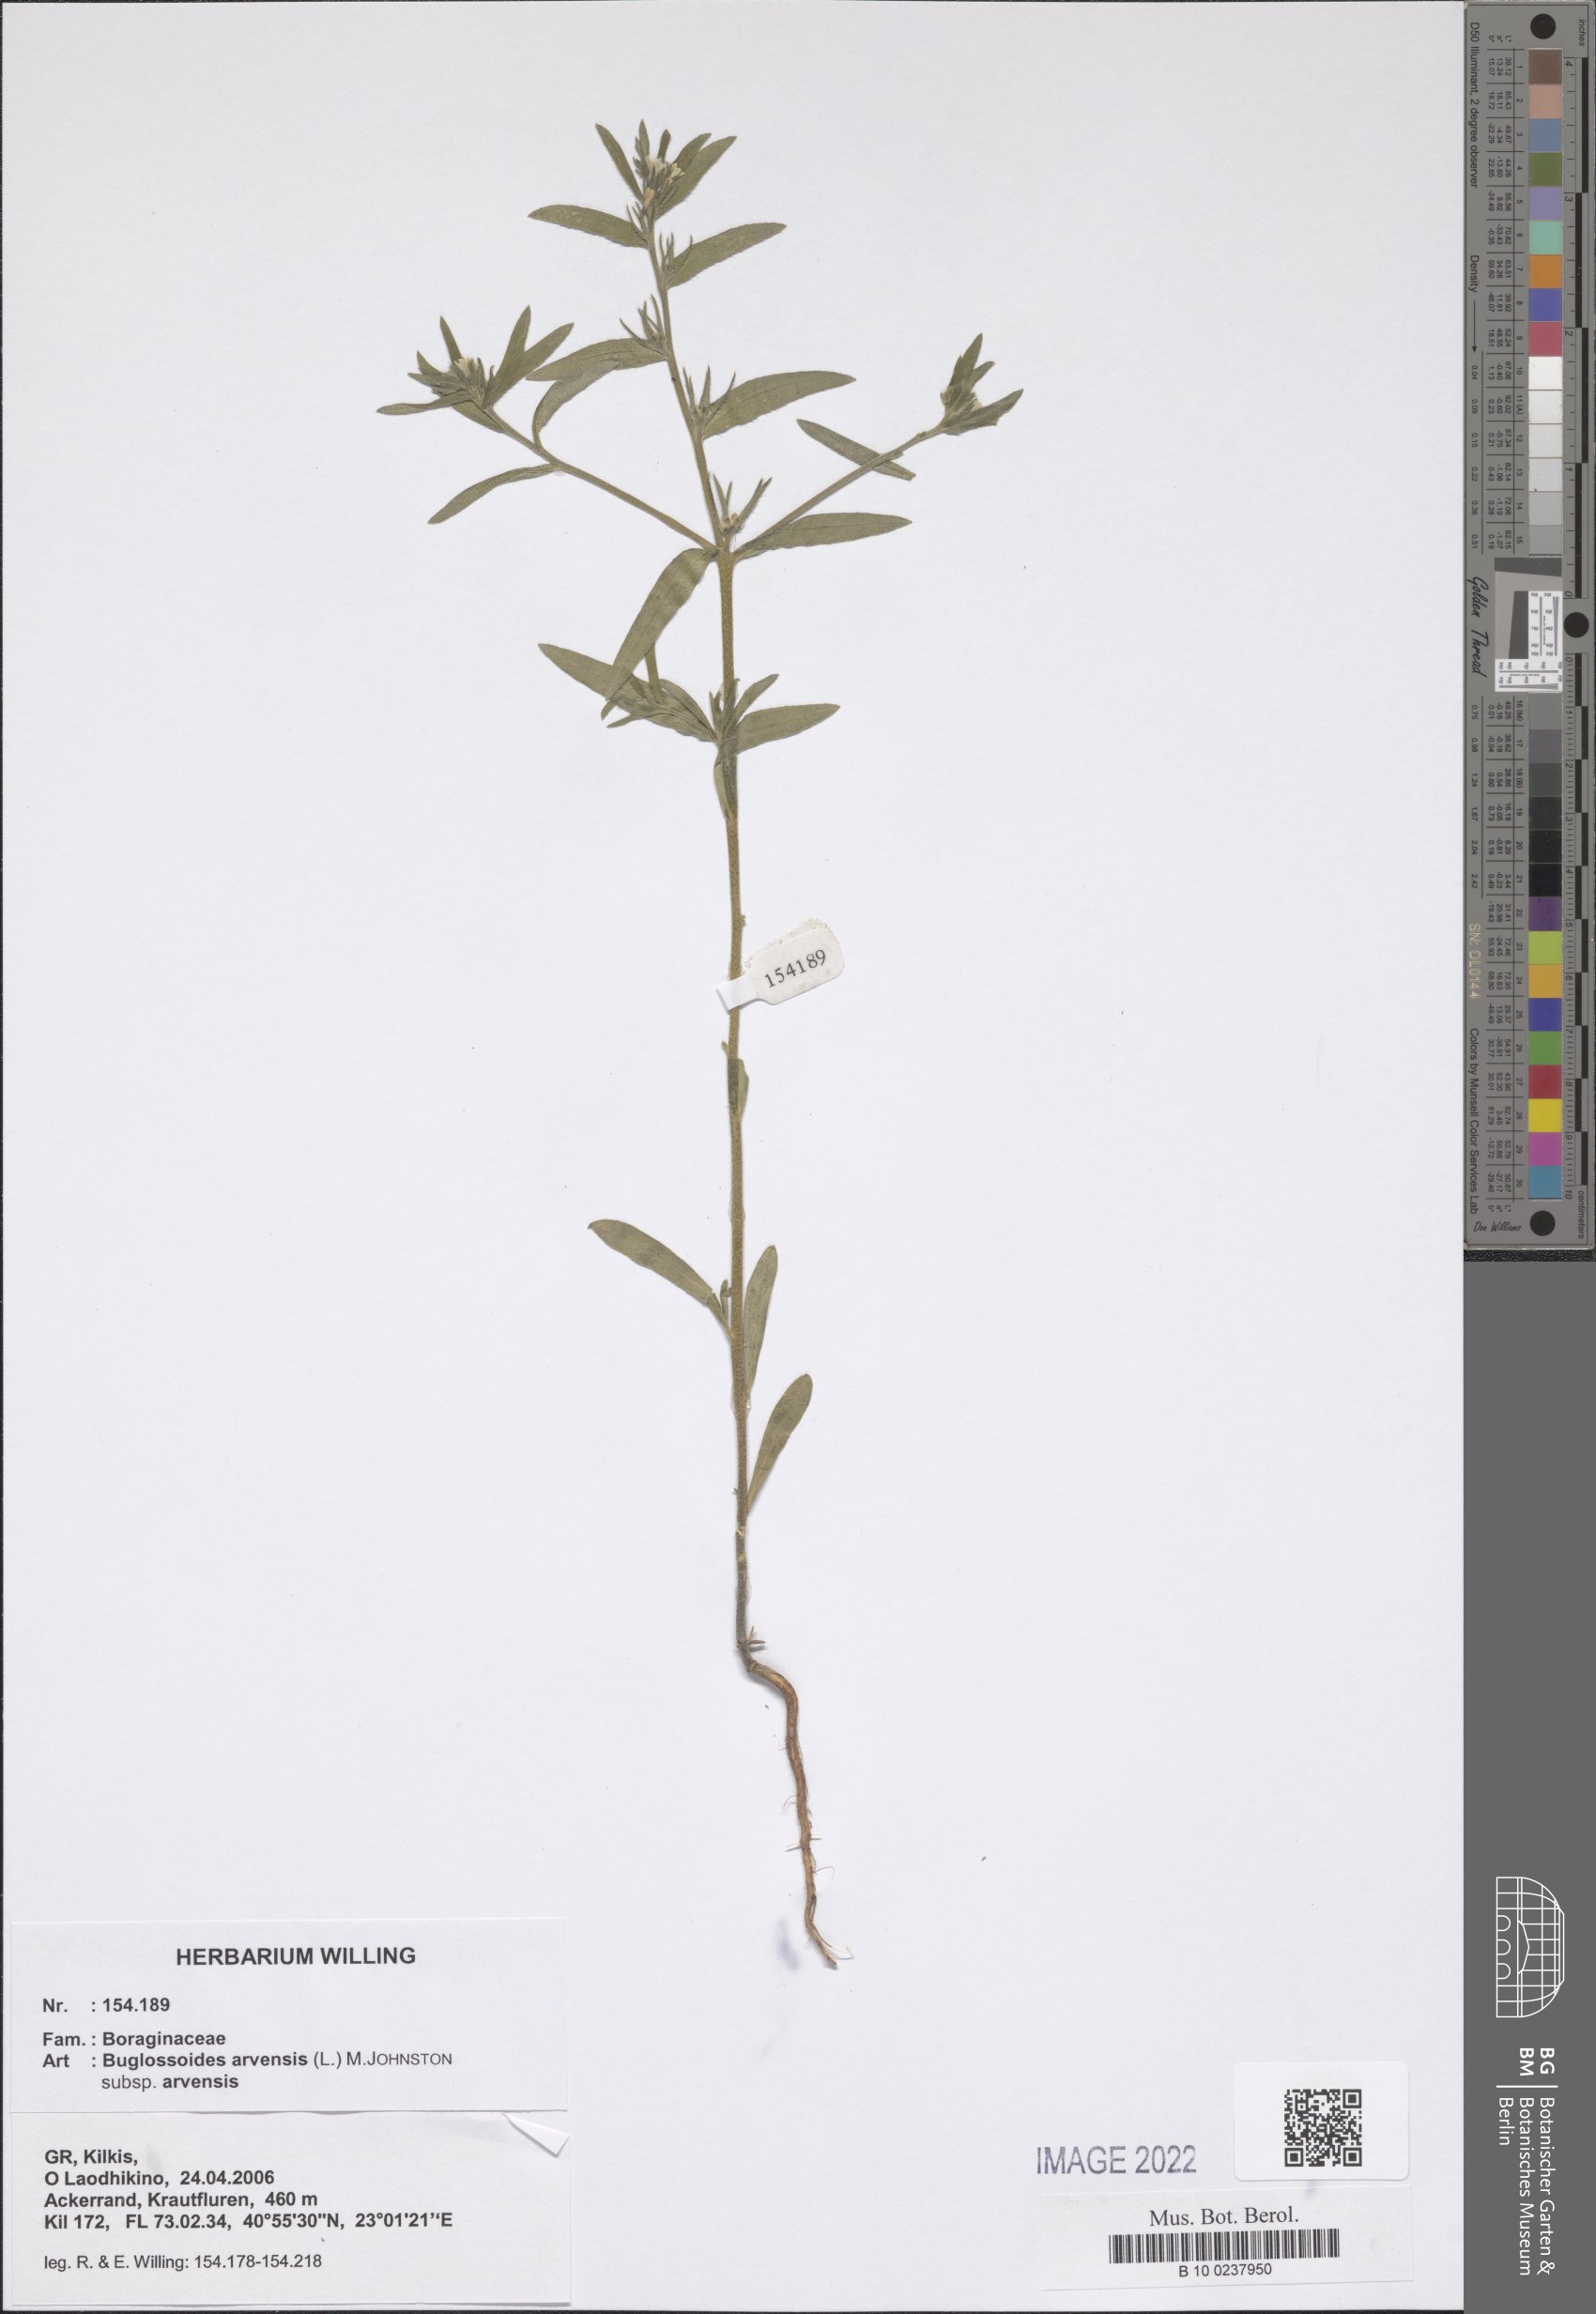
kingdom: Plantae
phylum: Tracheophyta
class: Magnoliopsida
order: Boraginales
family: Boraginaceae
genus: Buglossoides
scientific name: Buglossoides arvensis
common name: Corn gromwell
